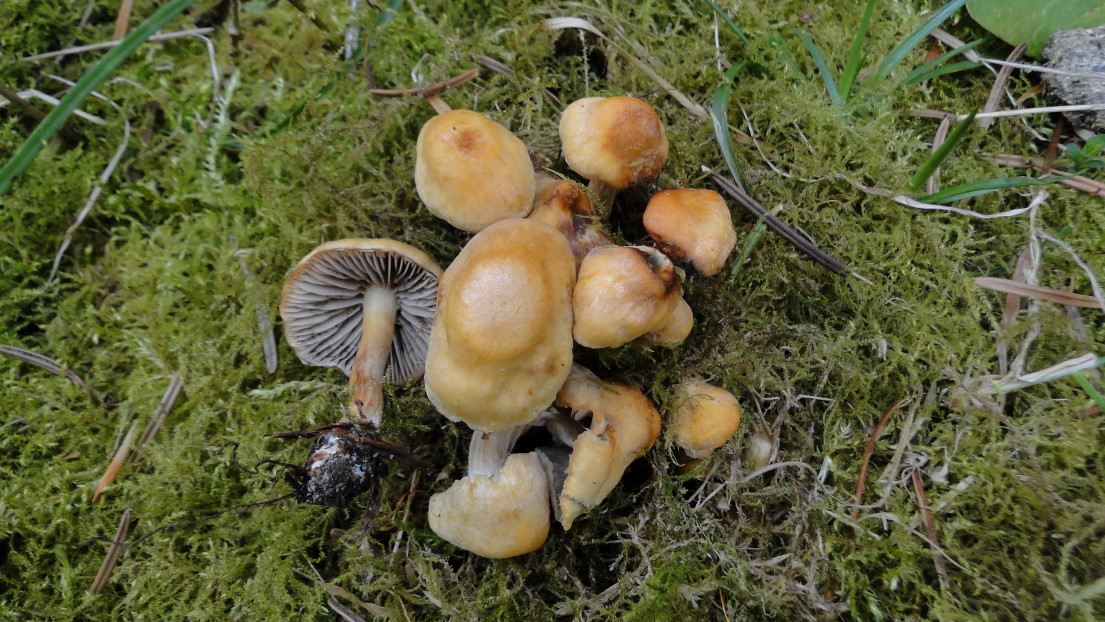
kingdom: Fungi
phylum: Basidiomycota
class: Agaricomycetes
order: Agaricales
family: Strophariaceae
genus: Hypholoma
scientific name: Hypholoma capnoides
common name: gran-svovlhat
